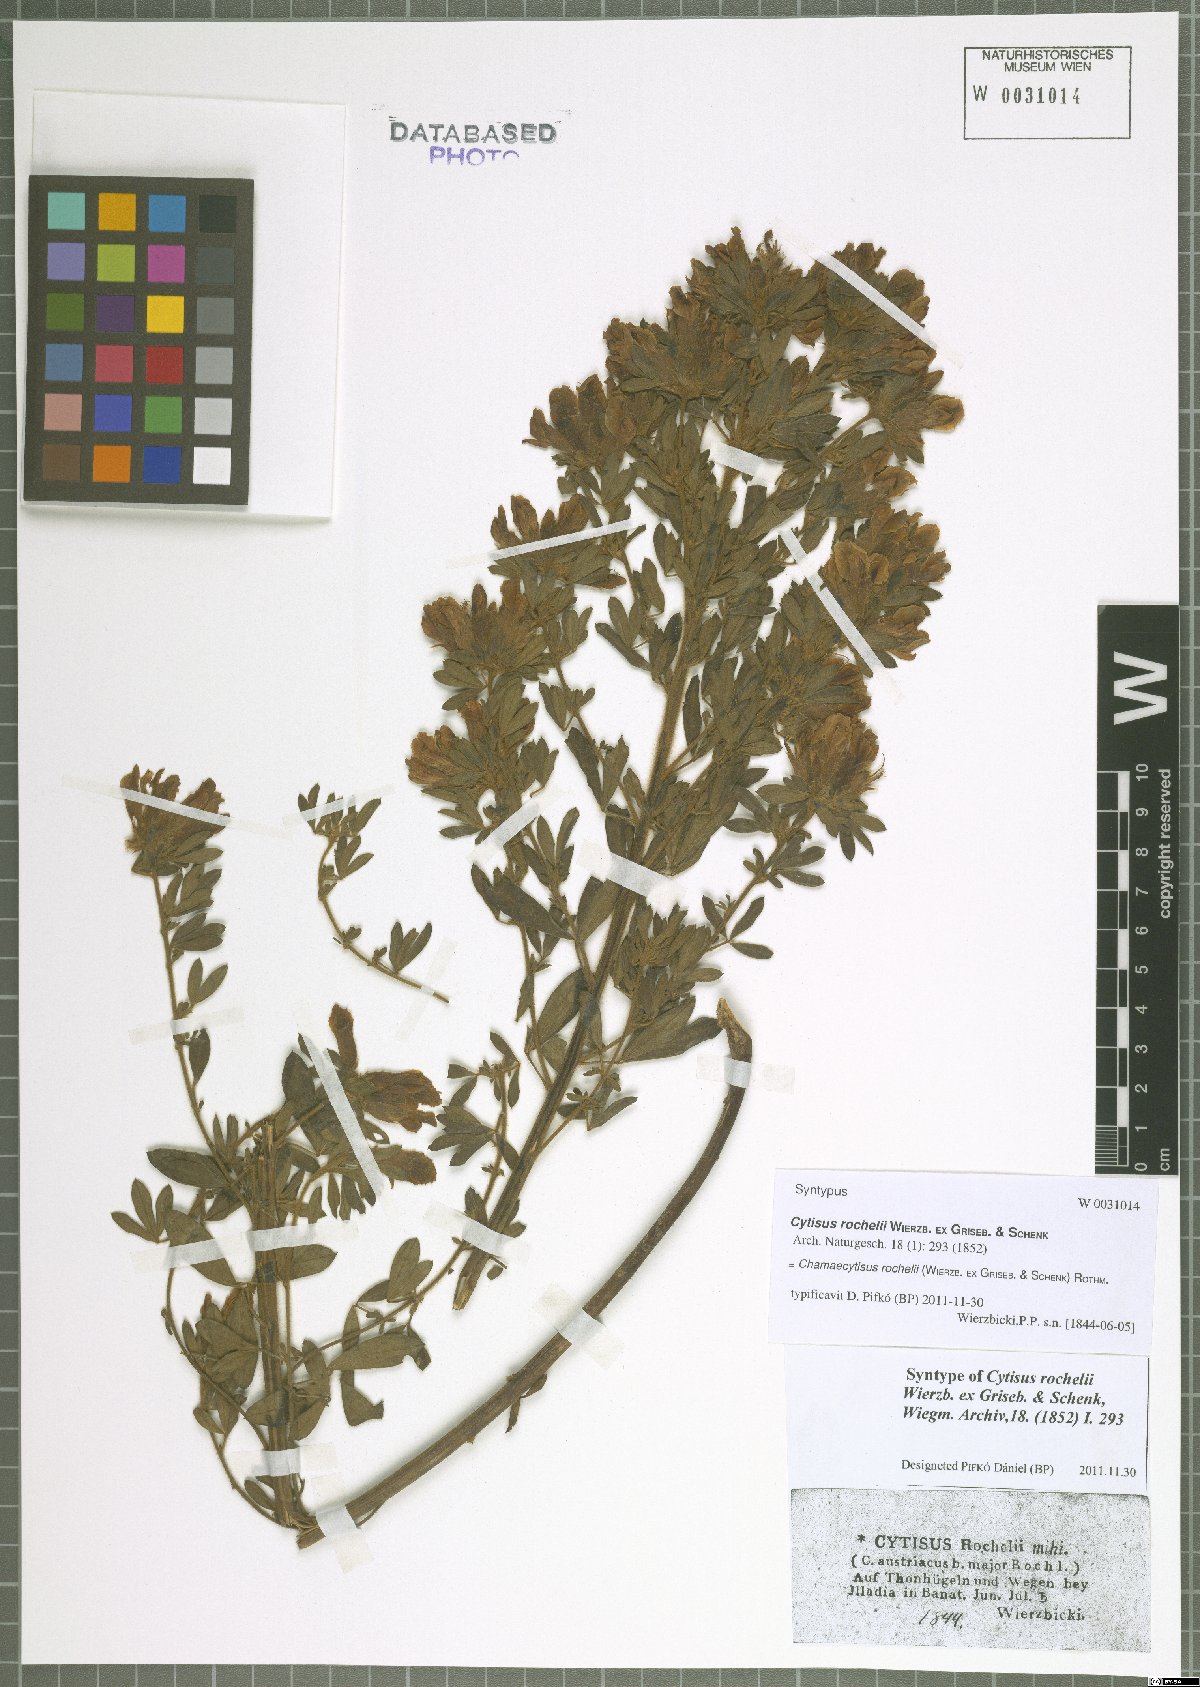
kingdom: Plantae
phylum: Tracheophyta
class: Magnoliopsida
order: Fabales
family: Fabaceae
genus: Chamaecytisus
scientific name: Chamaecytisus rochelii
